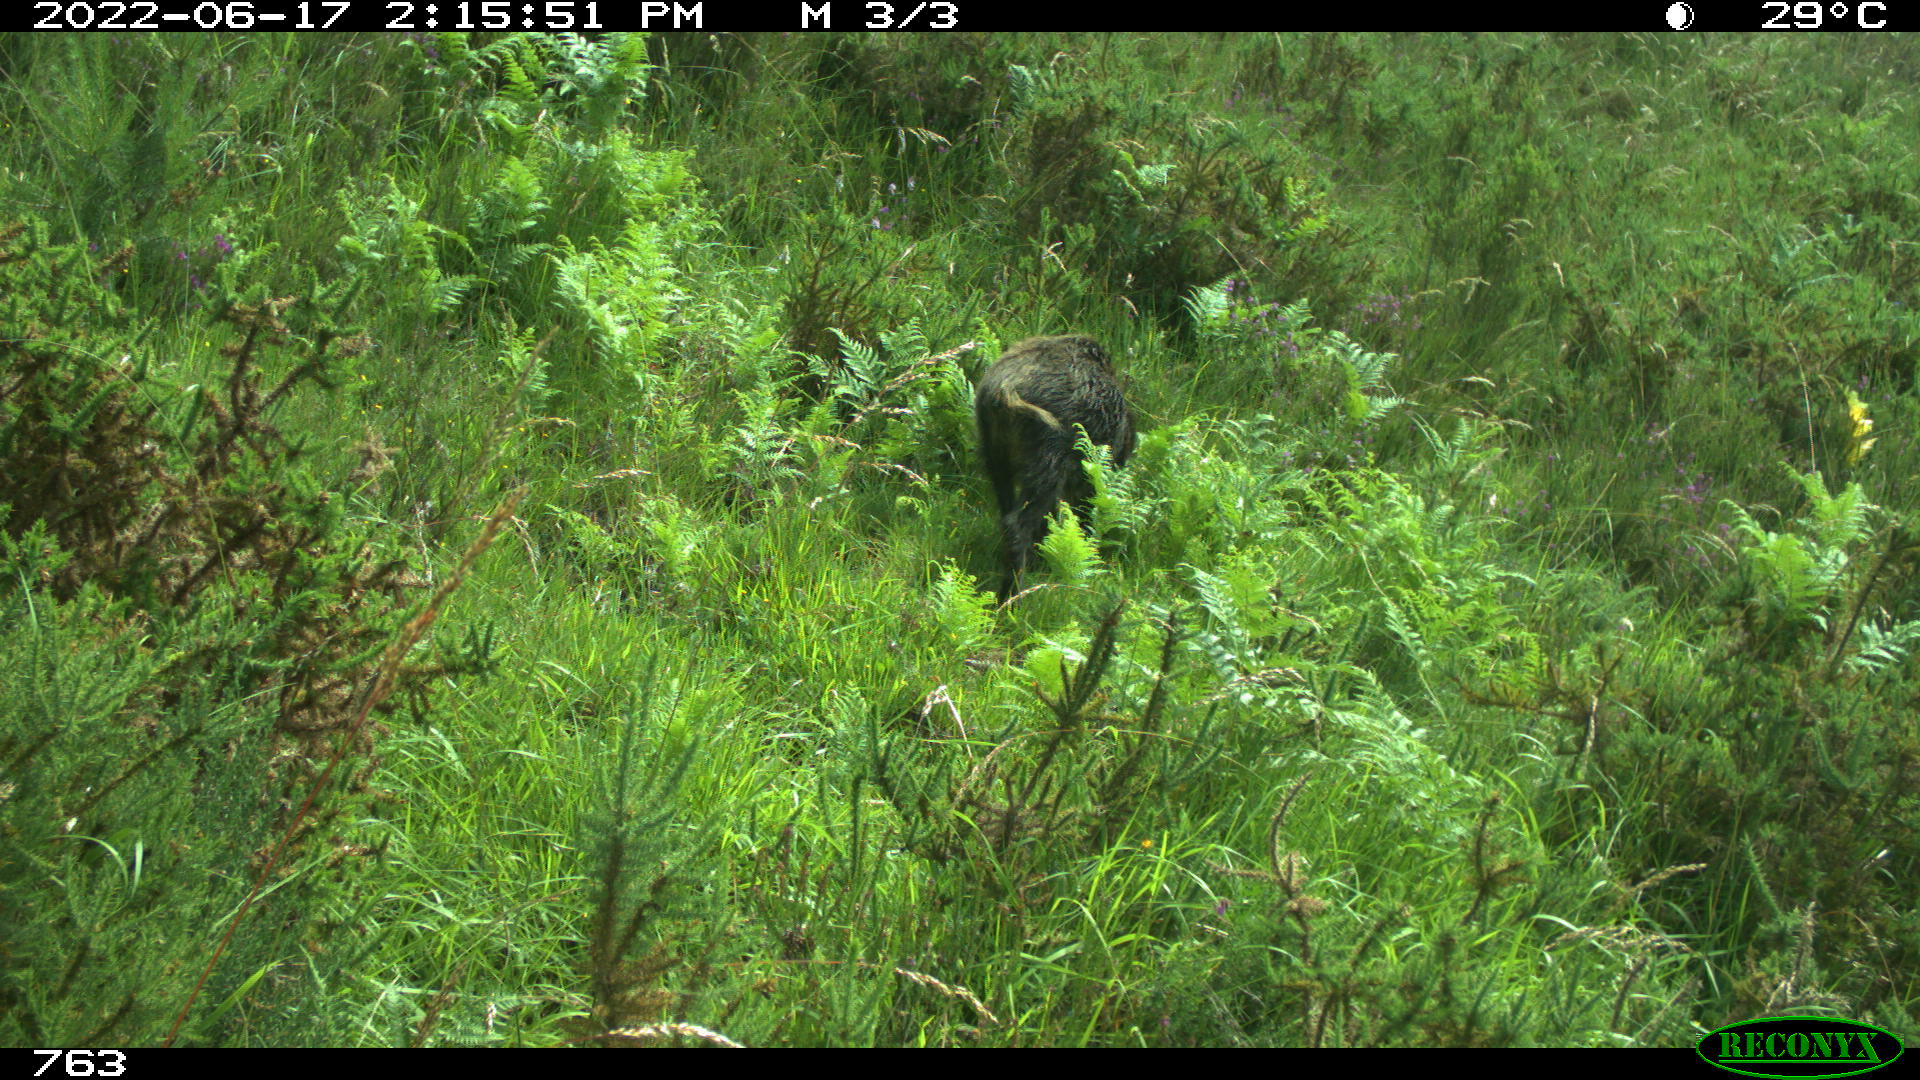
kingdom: Animalia
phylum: Chordata
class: Mammalia
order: Artiodactyla
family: Suidae
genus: Sus
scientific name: Sus scrofa
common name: Wild boar
